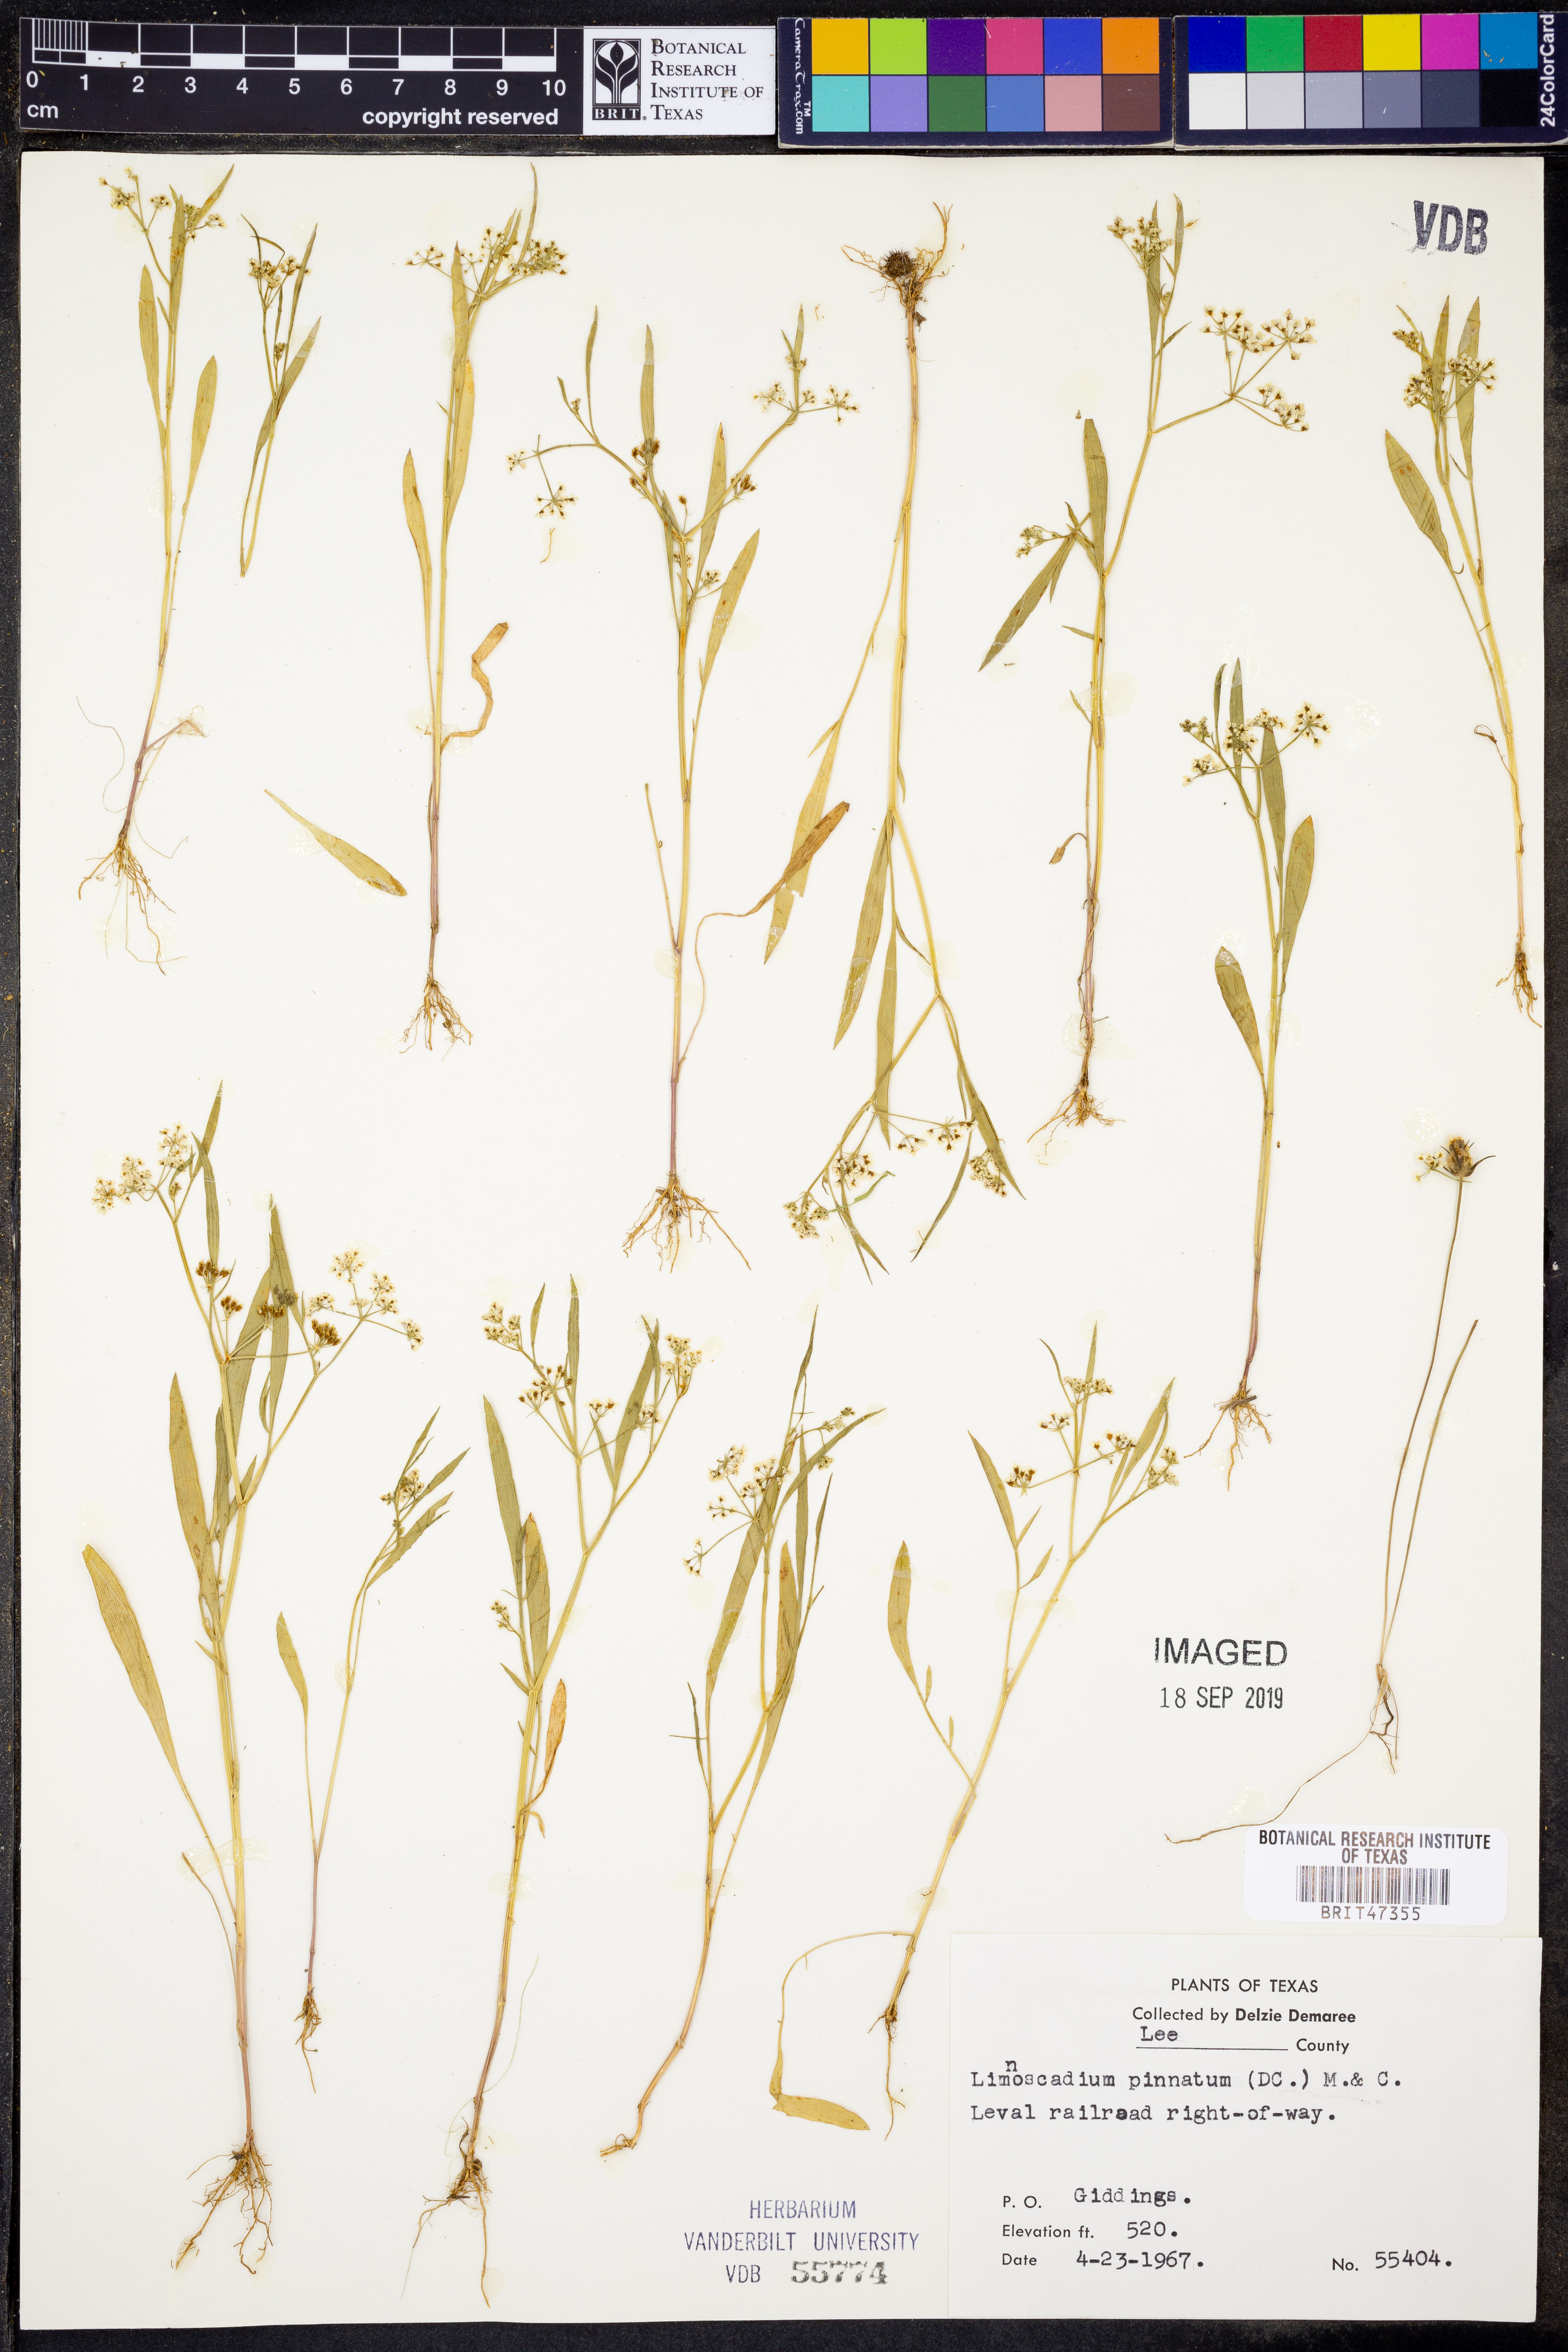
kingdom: Plantae
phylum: Tracheophyta
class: Magnoliopsida
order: Apiales
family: Apiaceae
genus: Limnosciadium
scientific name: Limnosciadium pinnatum
